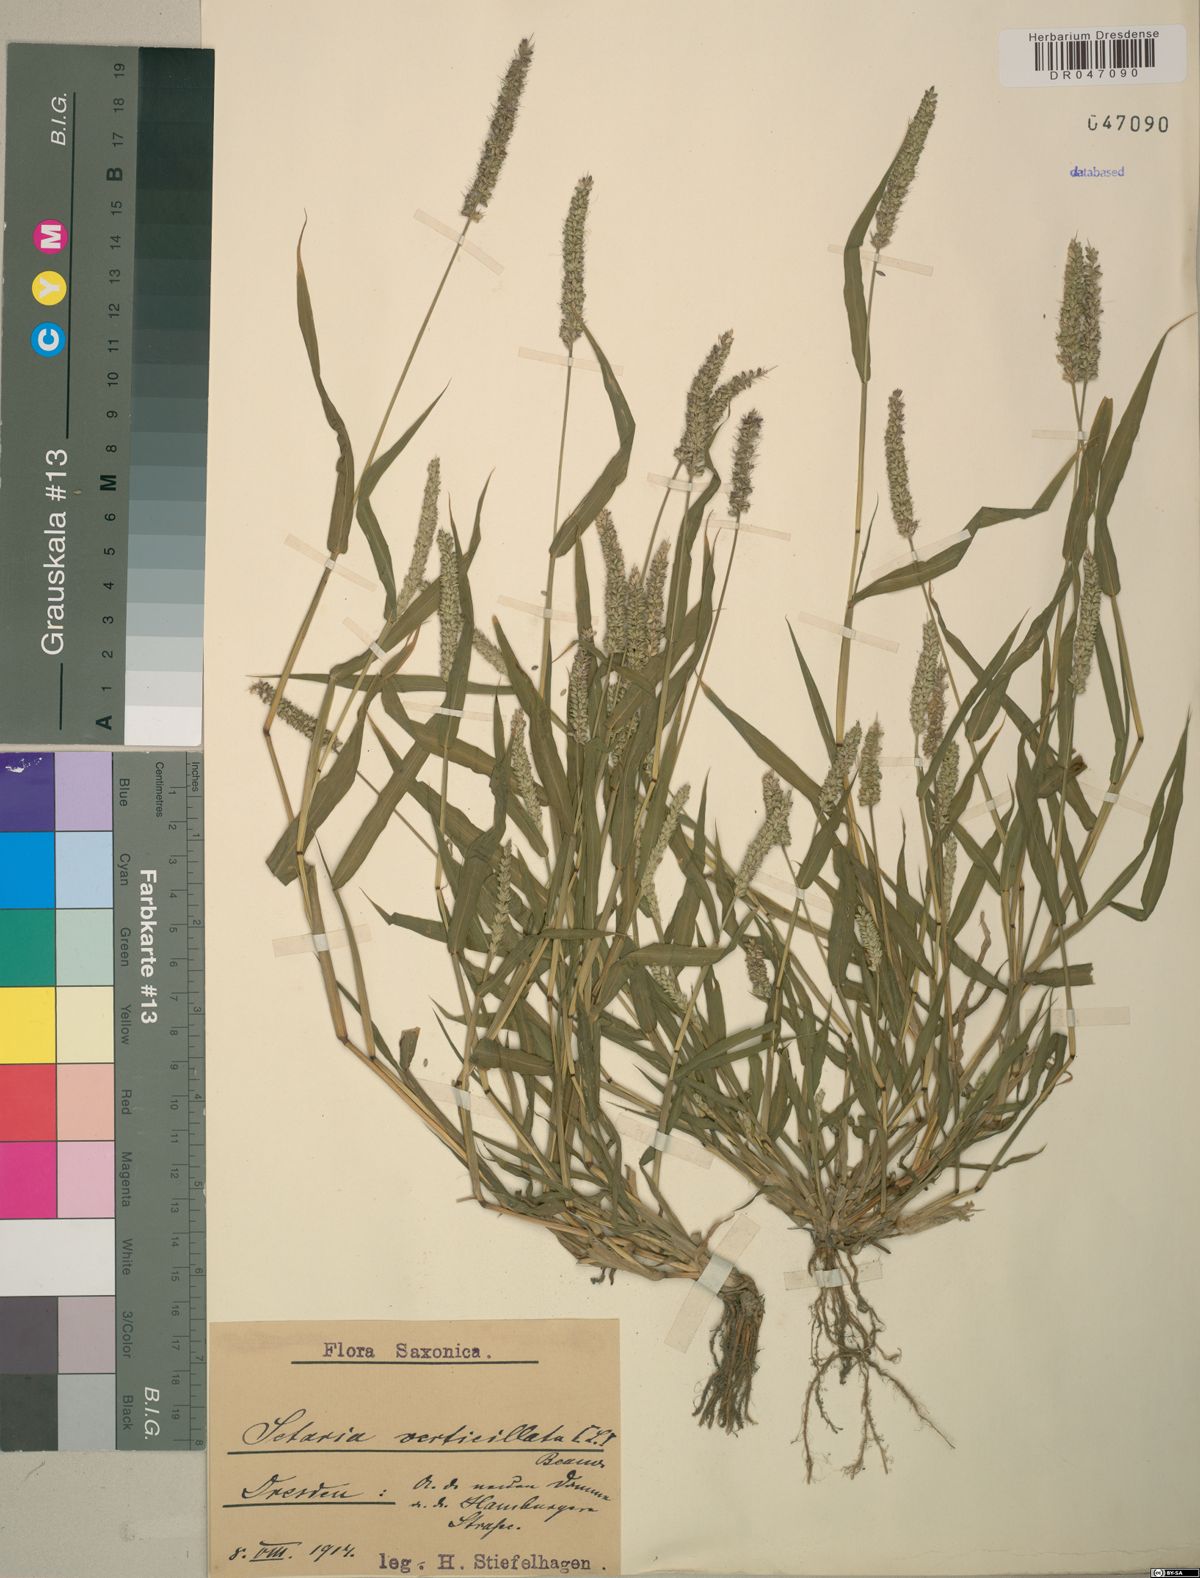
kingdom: Plantae
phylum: Tracheophyta
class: Liliopsida
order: Poales
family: Poaceae
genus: Setaria
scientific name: Setaria verticillata
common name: Hooked bristlegrass
